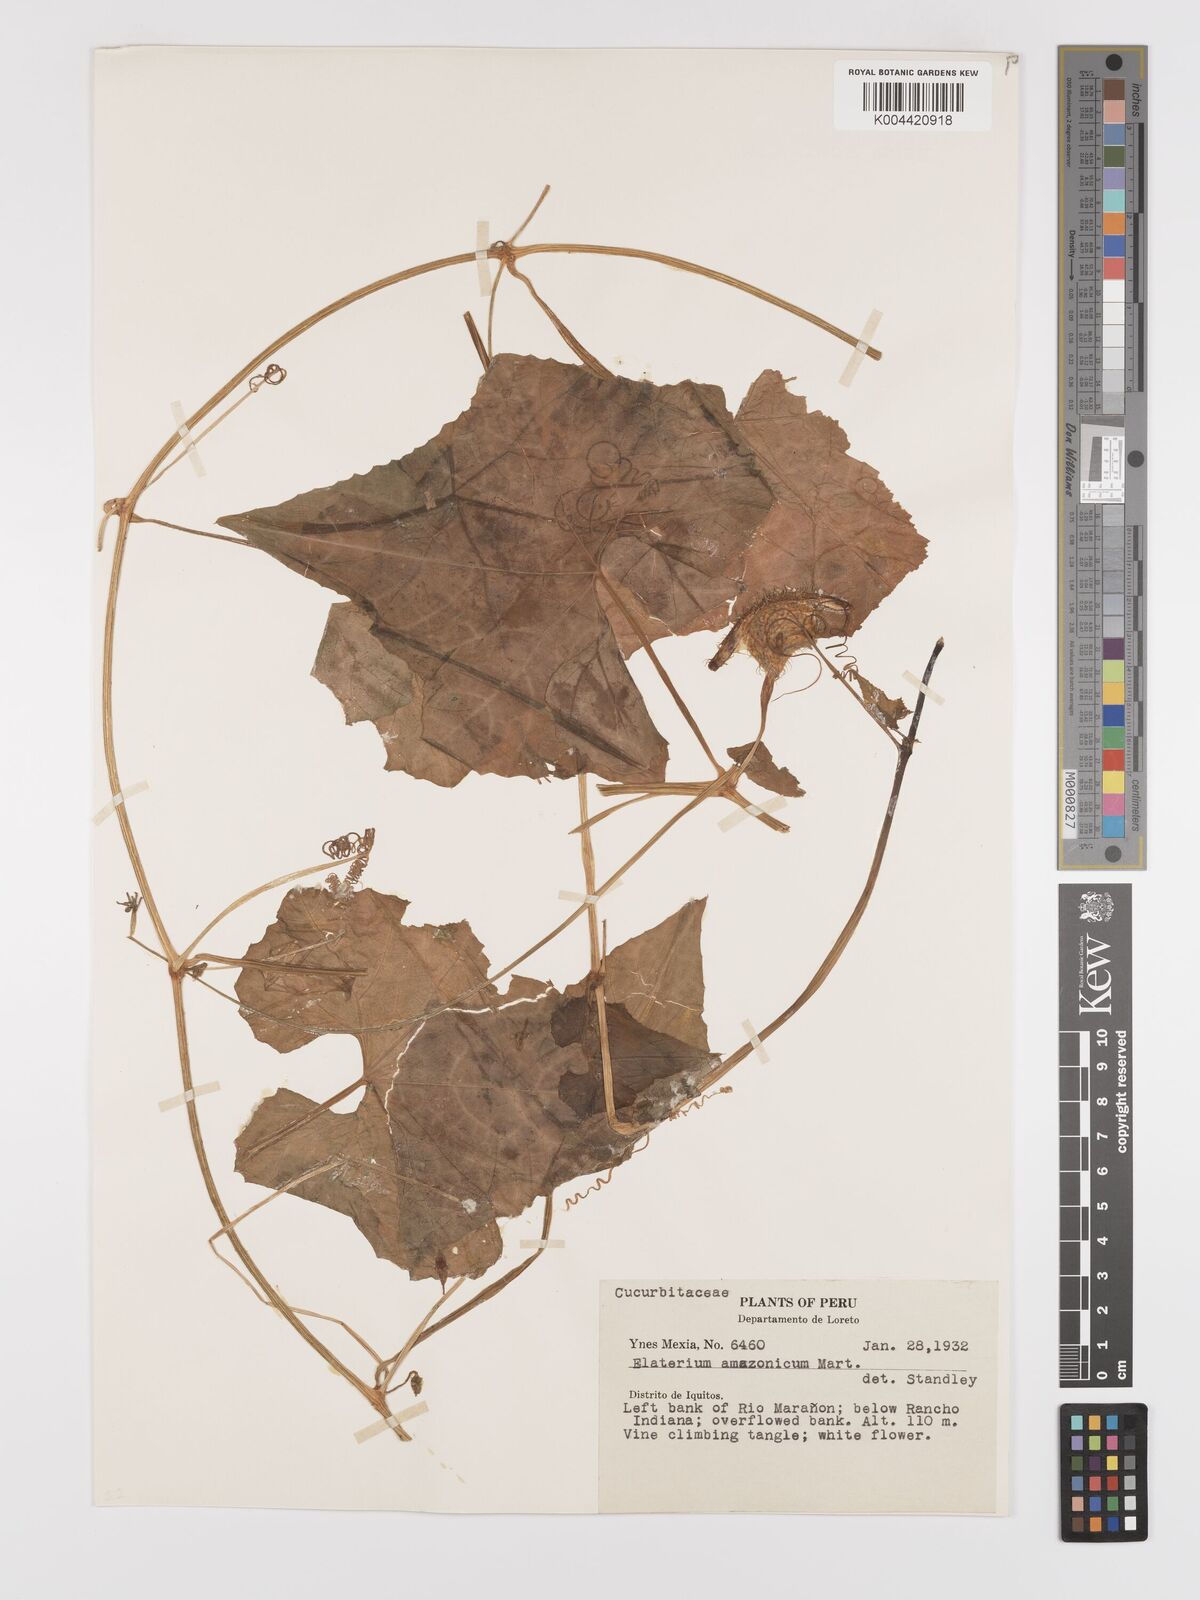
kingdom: Plantae
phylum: Tracheophyta
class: Magnoliopsida
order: Cucurbitales
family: Cucurbitaceae
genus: Cyclanthera
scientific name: Cyclanthera carthagenensis
